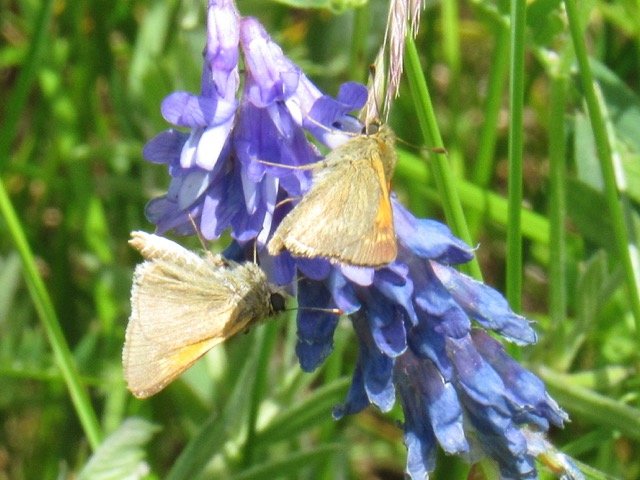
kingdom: Animalia
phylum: Arthropoda
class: Insecta
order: Lepidoptera
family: Hesperiidae
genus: Polites
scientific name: Polites themistocles
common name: Tawny-edged Skipper
